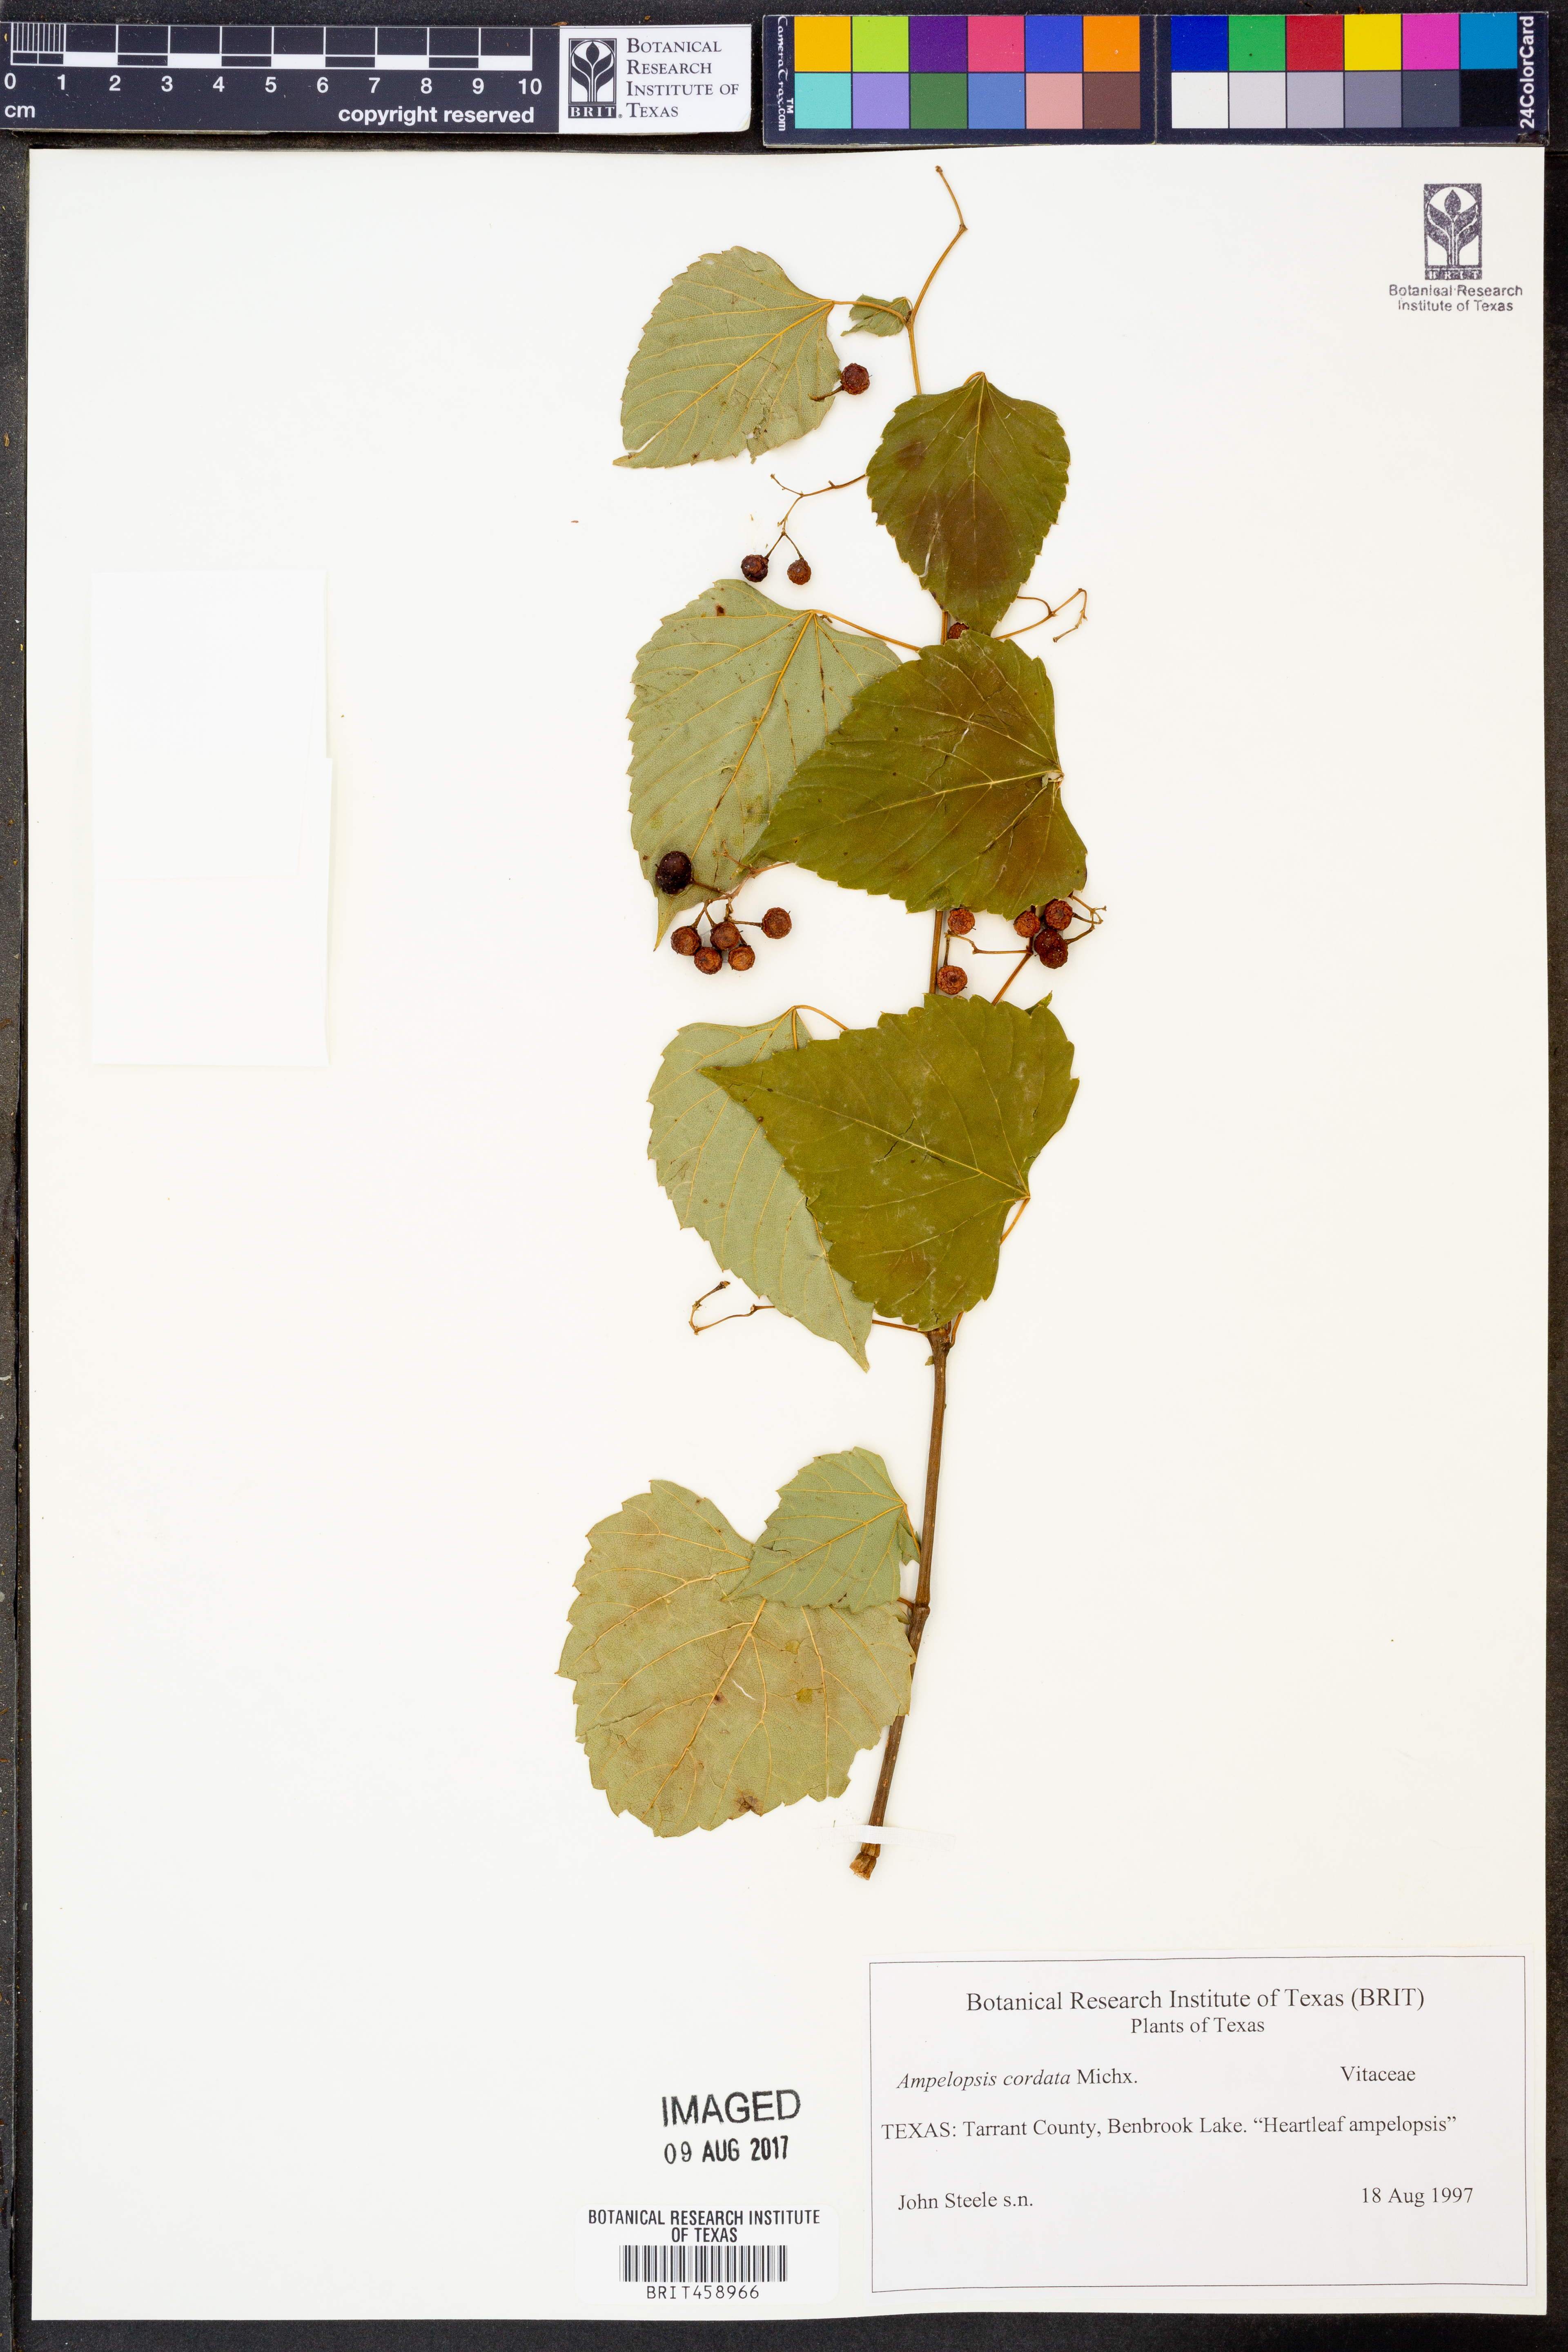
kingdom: Plantae
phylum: Tracheophyta
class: Magnoliopsida
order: Vitales
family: Vitaceae
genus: Ampelopsis
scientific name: Ampelopsis cordata
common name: Heart-leaf ampelopsis
